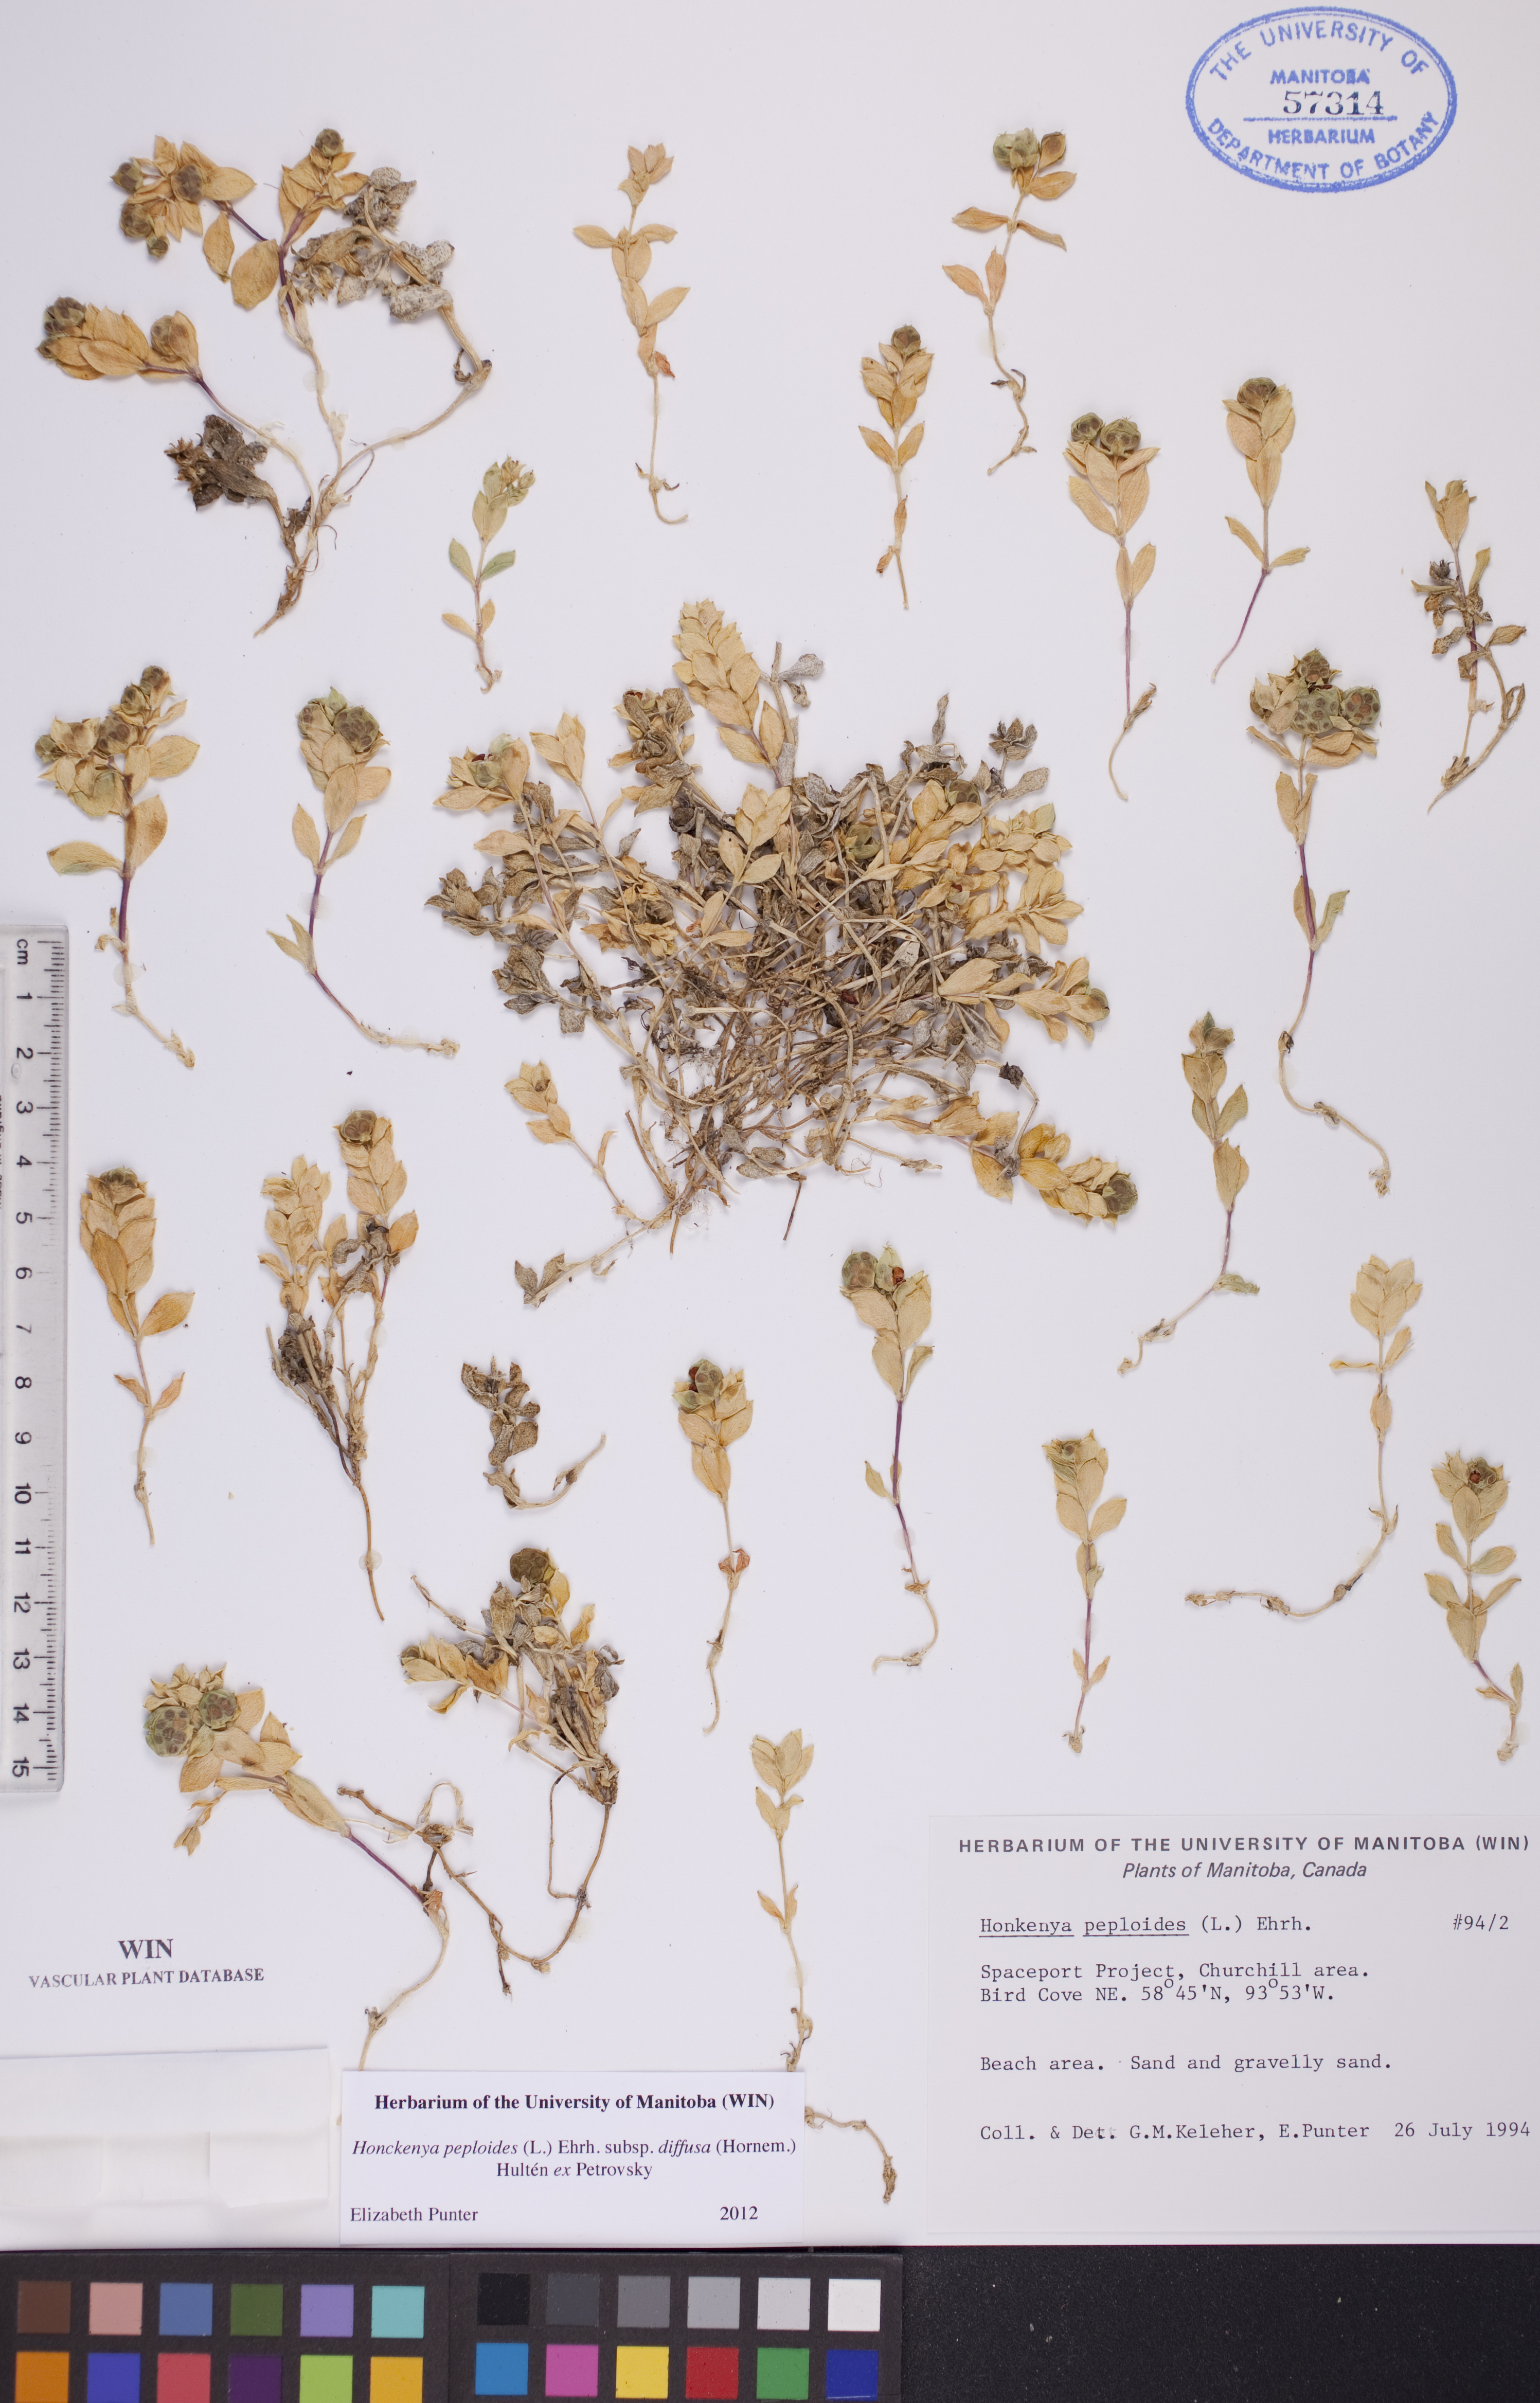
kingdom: Plantae
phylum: Tracheophyta
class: Magnoliopsida
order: Caryophyllales
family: Caryophyllaceae
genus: Honckenya
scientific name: Honckenya peploides
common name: Sea sandwort
